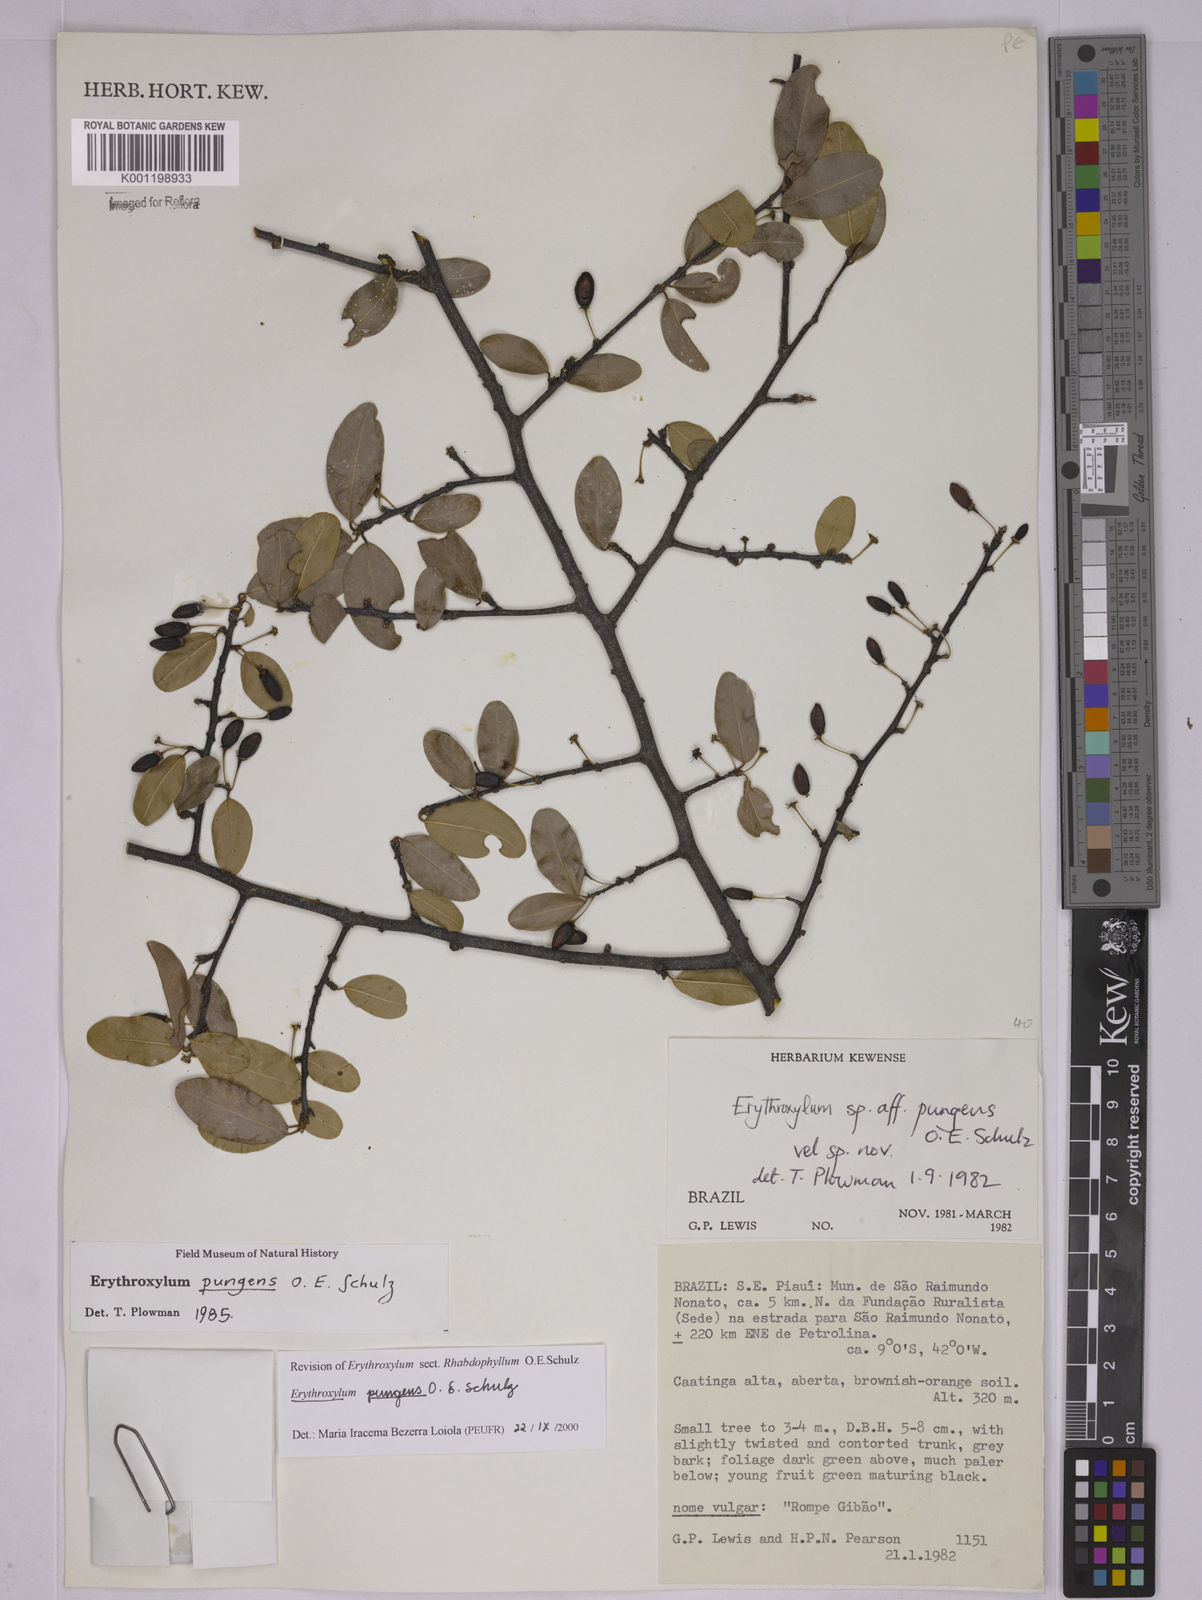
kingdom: Plantae
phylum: Tracheophyta
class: Magnoliopsida
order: Malpighiales
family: Erythroxylaceae
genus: Erythroxylum
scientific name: Erythroxylum pungens
